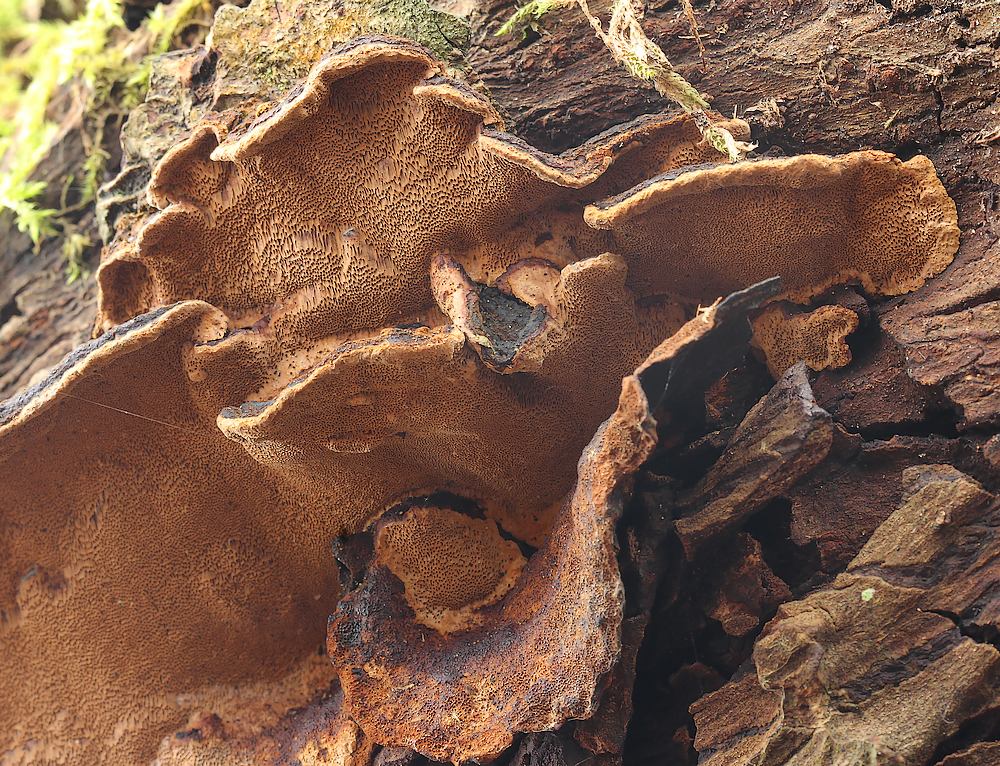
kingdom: Fungi
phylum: Basidiomycota
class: Agaricomycetes
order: Hymenochaetales
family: Hymenochaetaceae
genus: Phellinopsis
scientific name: Phellinopsis conchata
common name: pile-ildporesvamp
